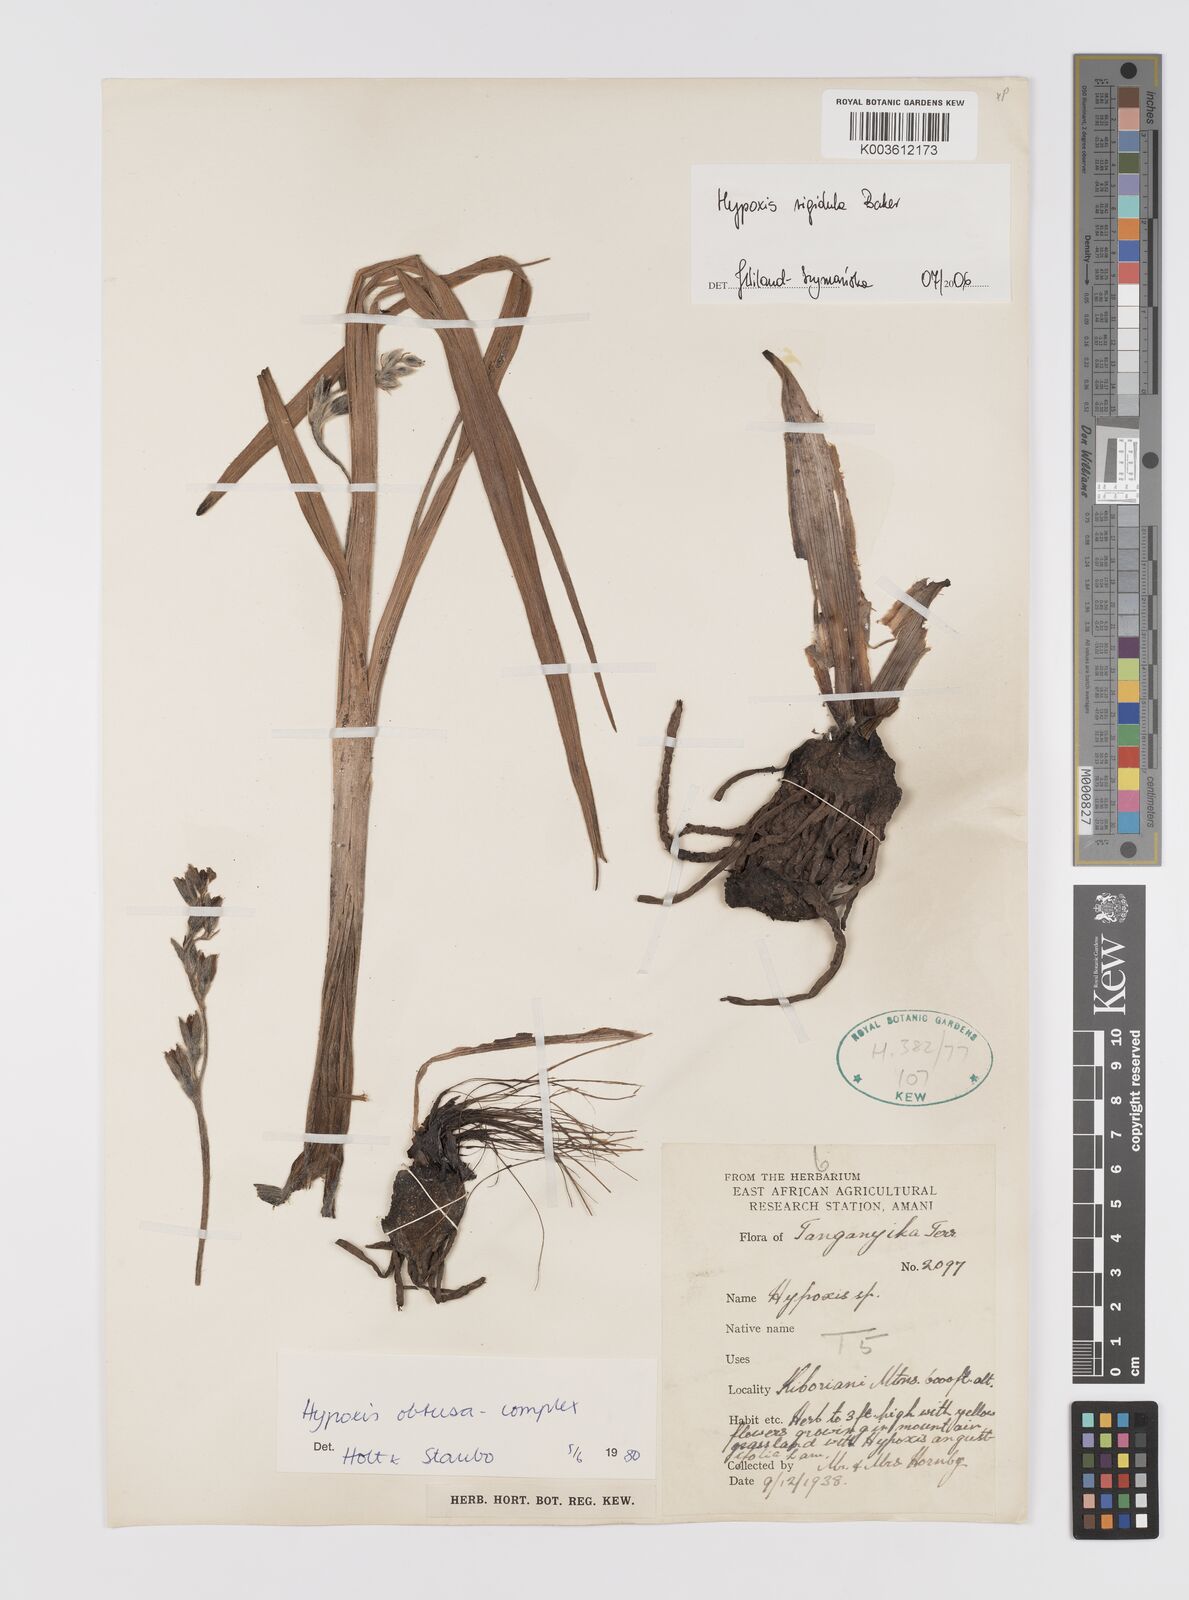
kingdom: Plantae
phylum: Tracheophyta
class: Liliopsida
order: Asparagales
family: Hypoxidaceae
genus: Hypoxis
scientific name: Hypoxis rigidula
